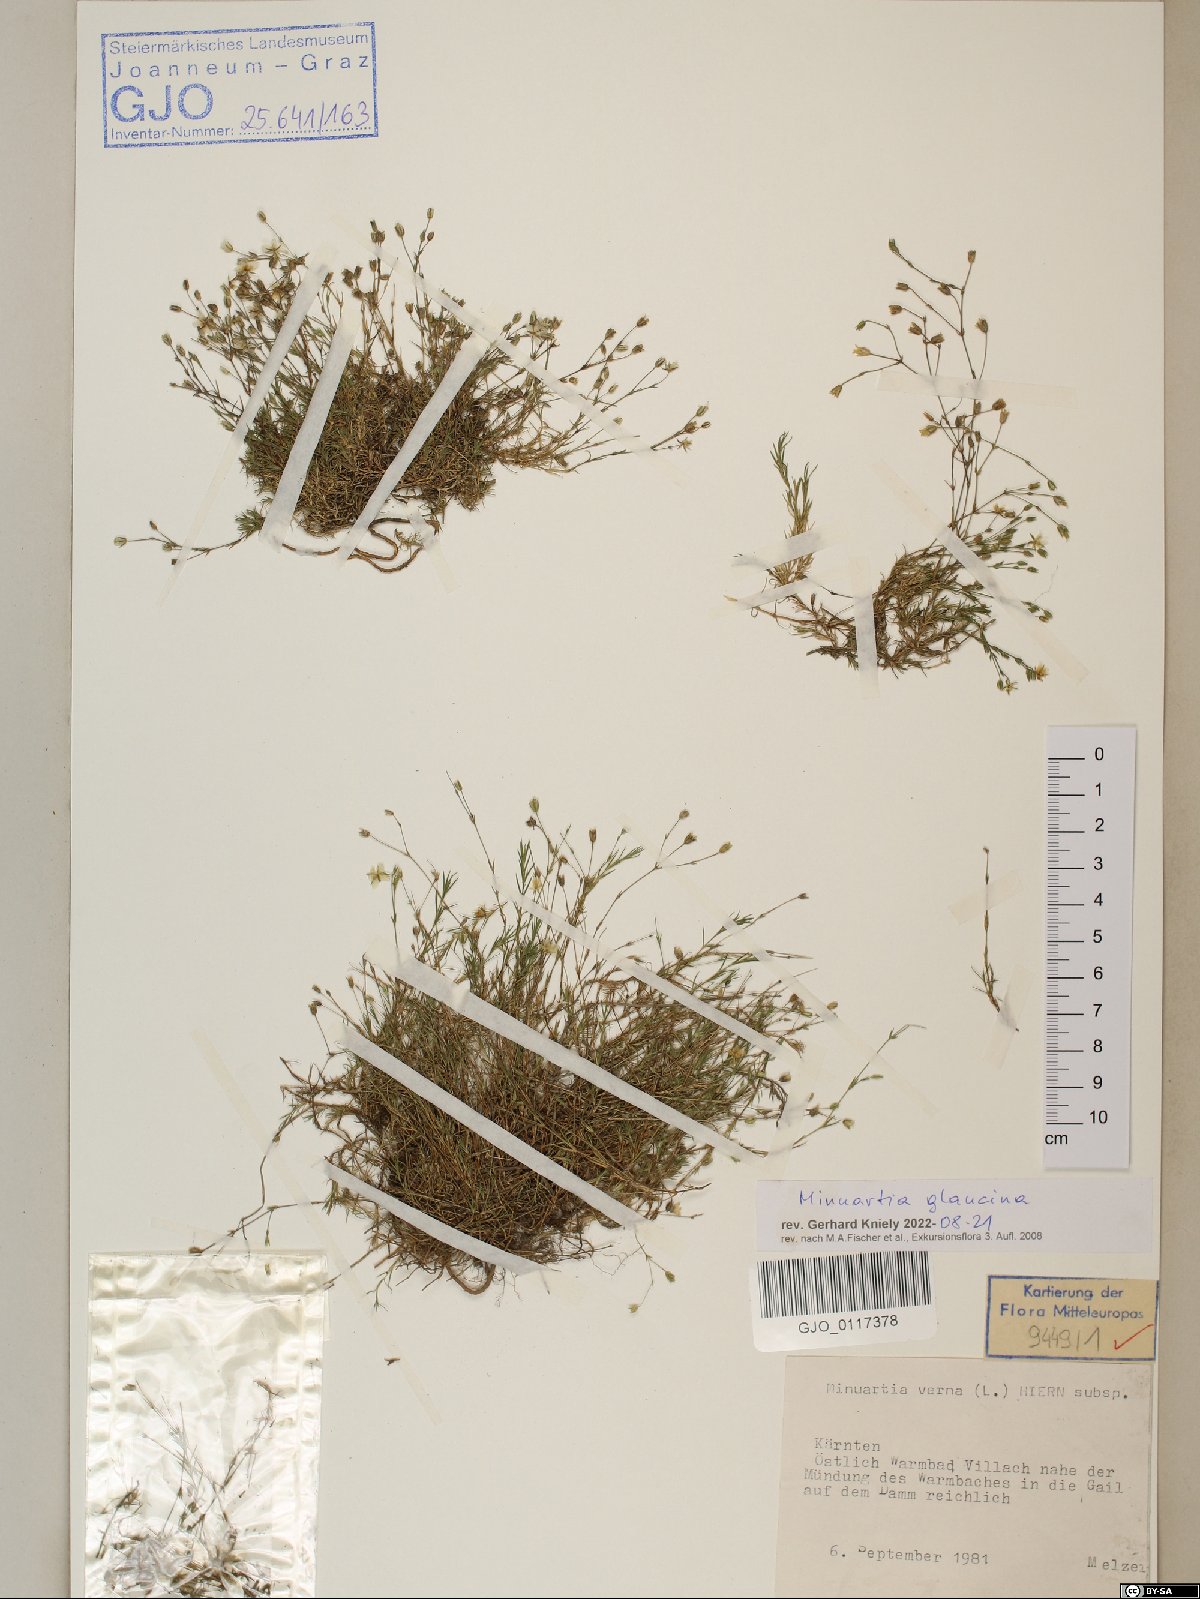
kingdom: Plantae
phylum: Tracheophyta
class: Magnoliopsida
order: Caryophyllales
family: Caryophyllaceae
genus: Sabulina
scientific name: Sabulina glaucina
